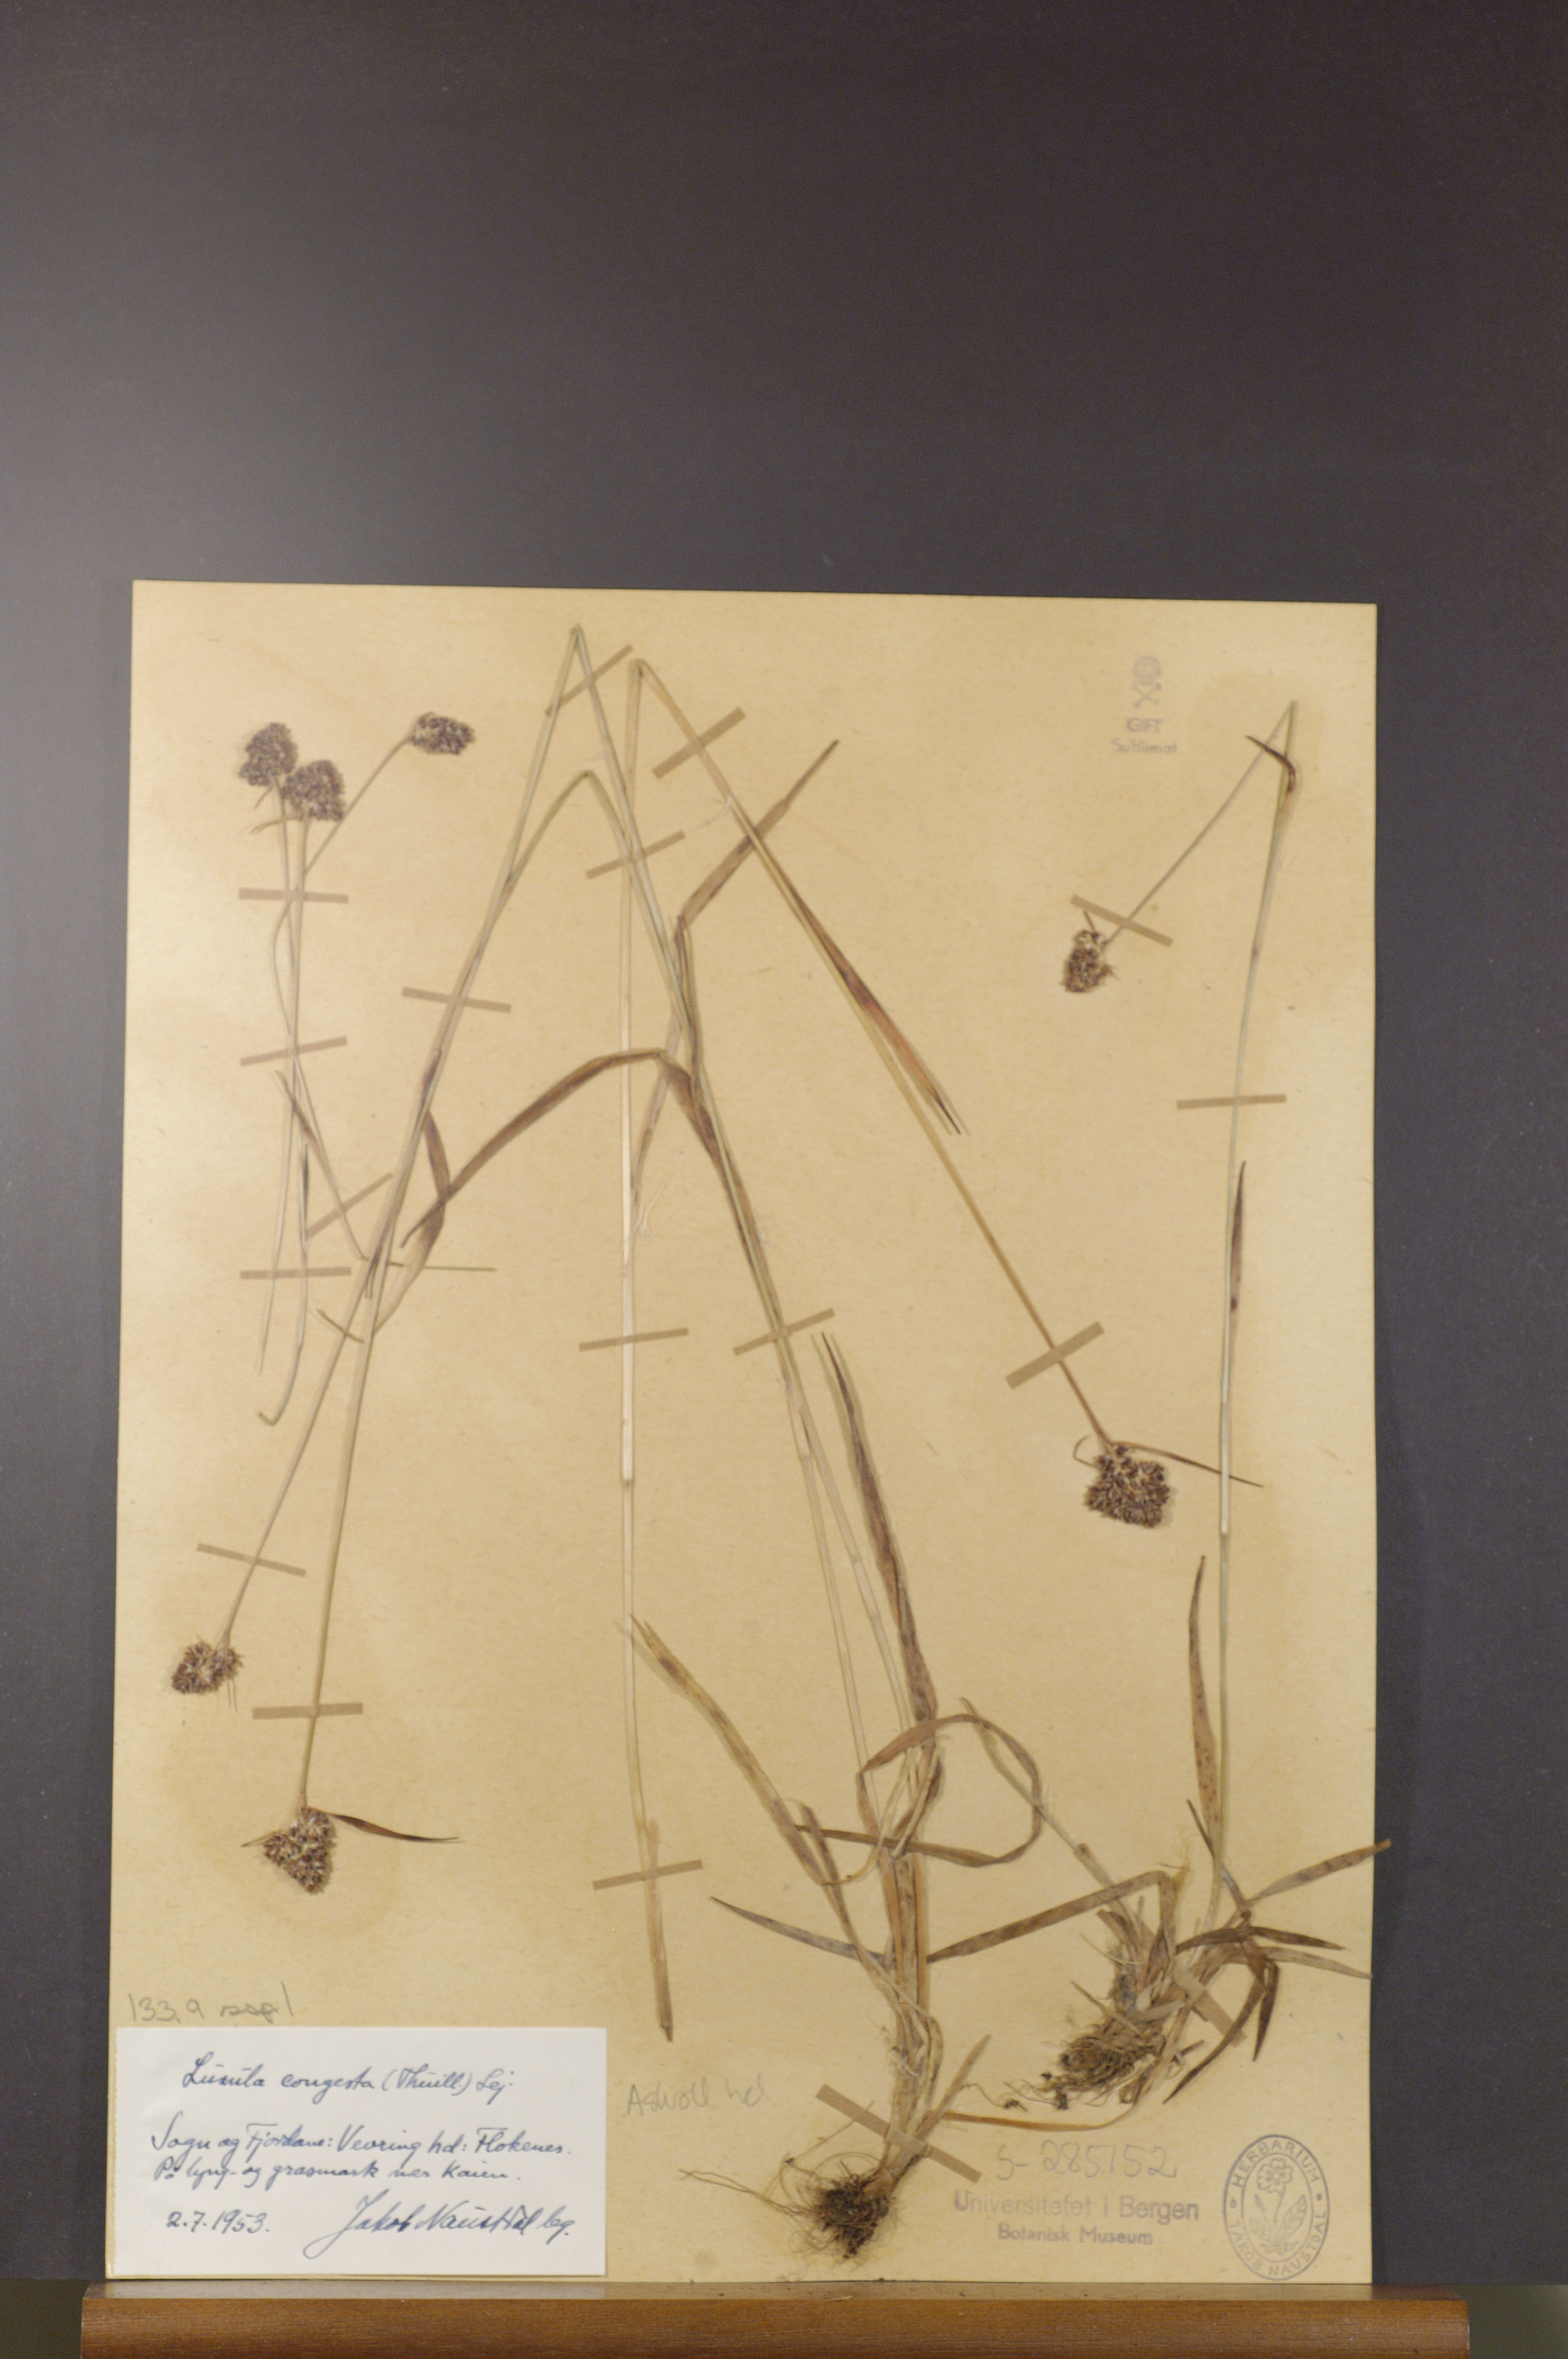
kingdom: Plantae
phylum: Tracheophyta
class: Liliopsida
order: Poales
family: Juncaceae
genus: Luzula
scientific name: Luzula congesta
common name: Heath woodrush
